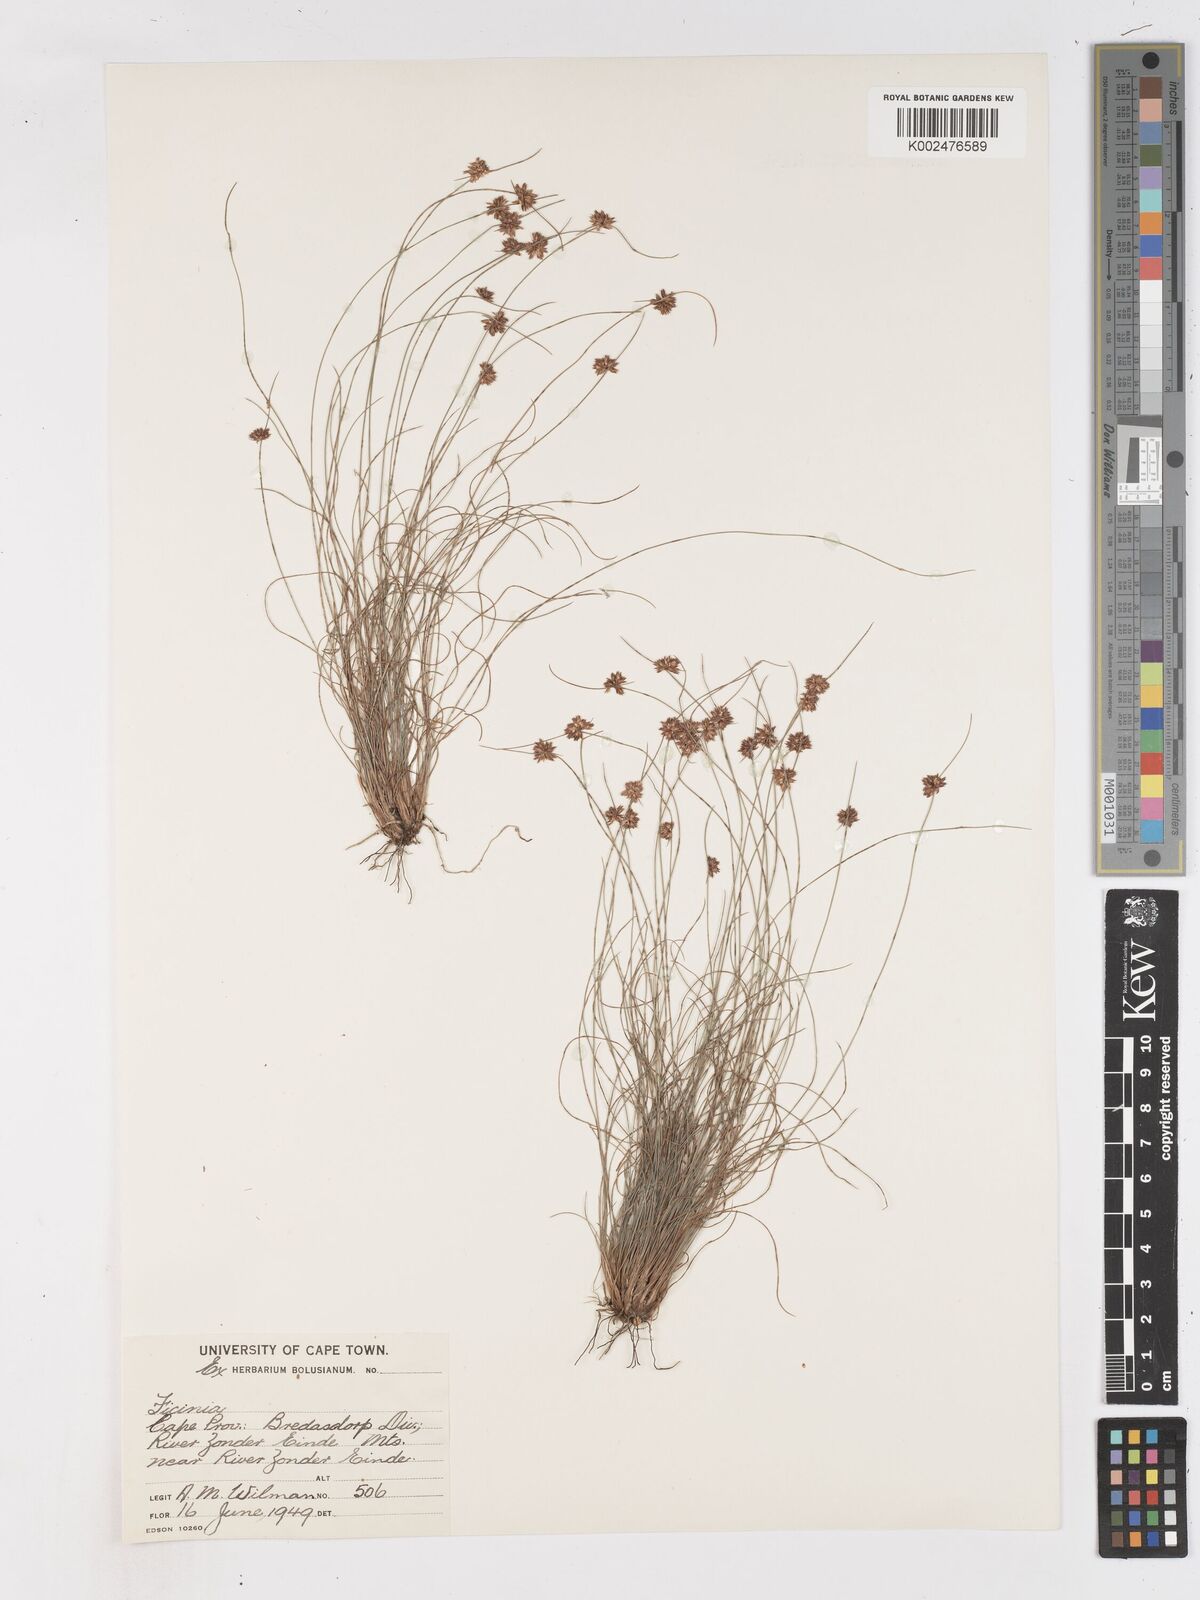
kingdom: Plantae
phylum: Tracheophyta
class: Liliopsida
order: Poales
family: Cyperaceae
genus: Ficinia
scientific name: Ficinia
